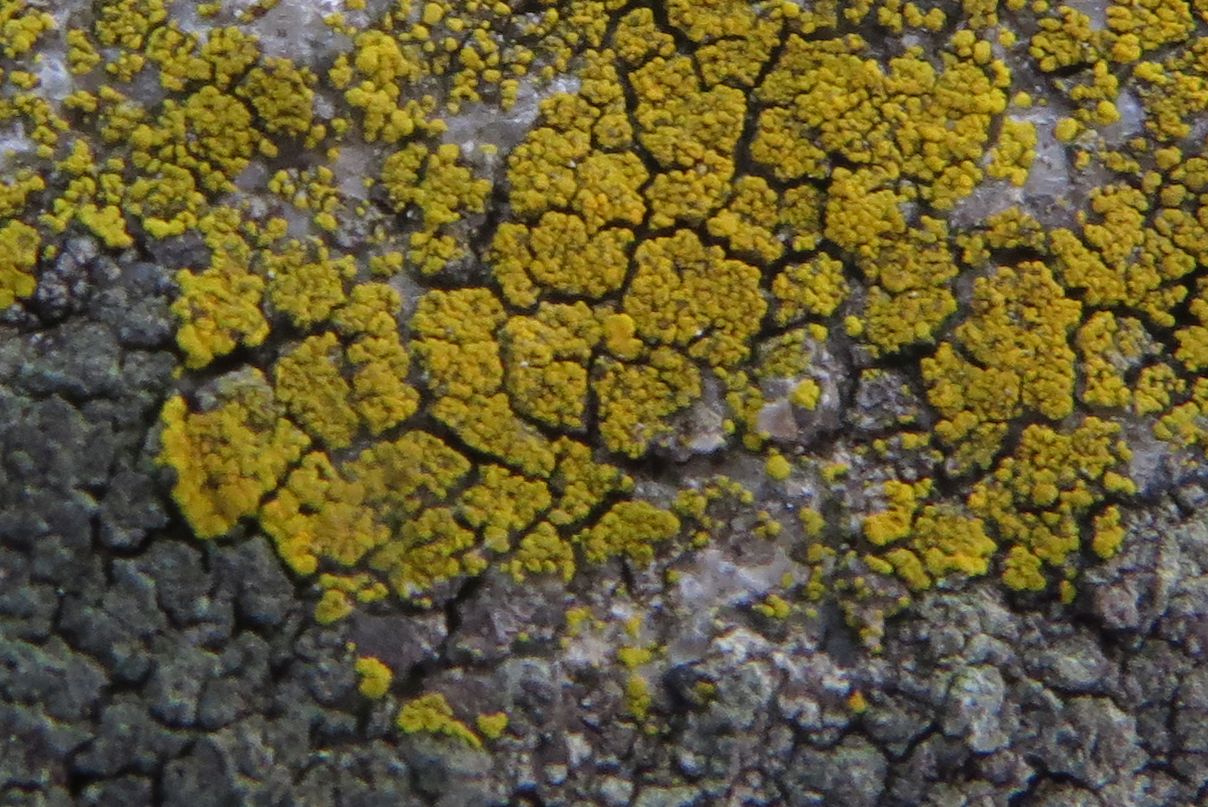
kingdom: Fungi
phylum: Ascomycota
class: Candelariomycetes
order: Candelariales
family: Candelariaceae
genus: Candelariella
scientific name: Candelariella vitellina
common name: almindelig æggeblommelav
